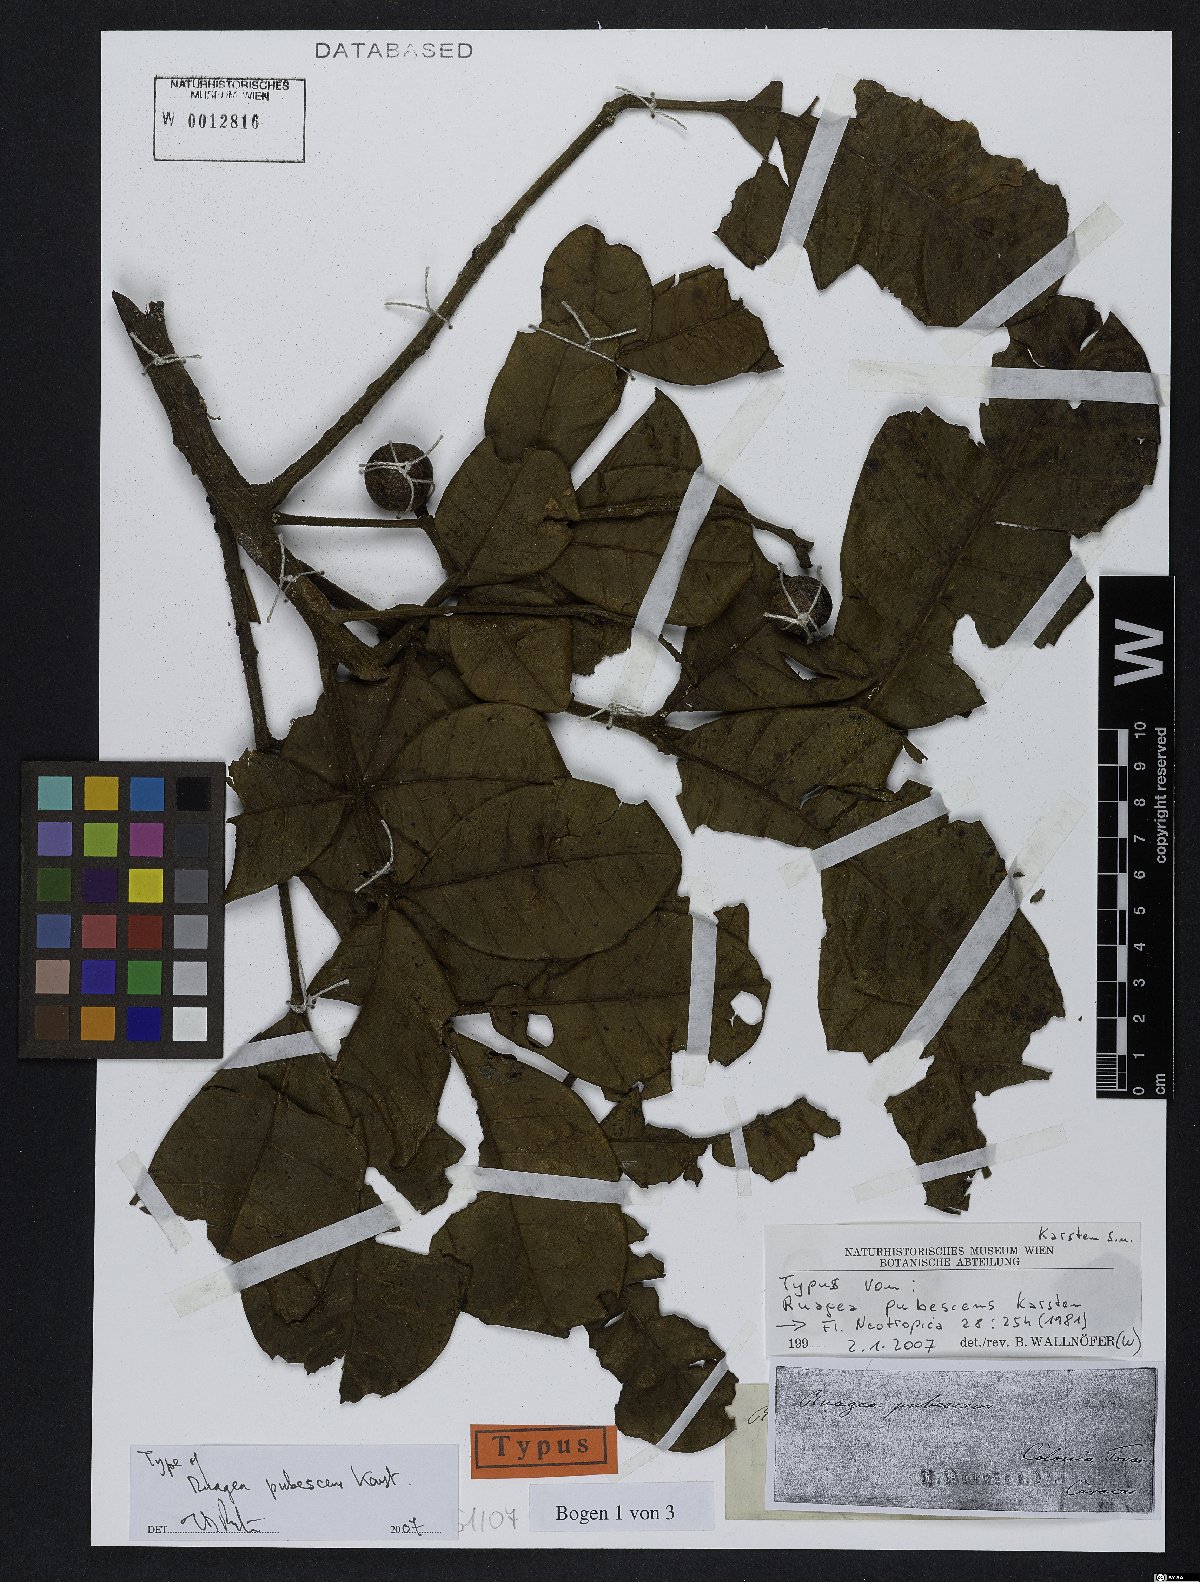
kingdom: Plantae
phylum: Tracheophyta
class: Magnoliopsida
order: Sapindales
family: Meliaceae
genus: Ruagea
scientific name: Ruagea pubescens
